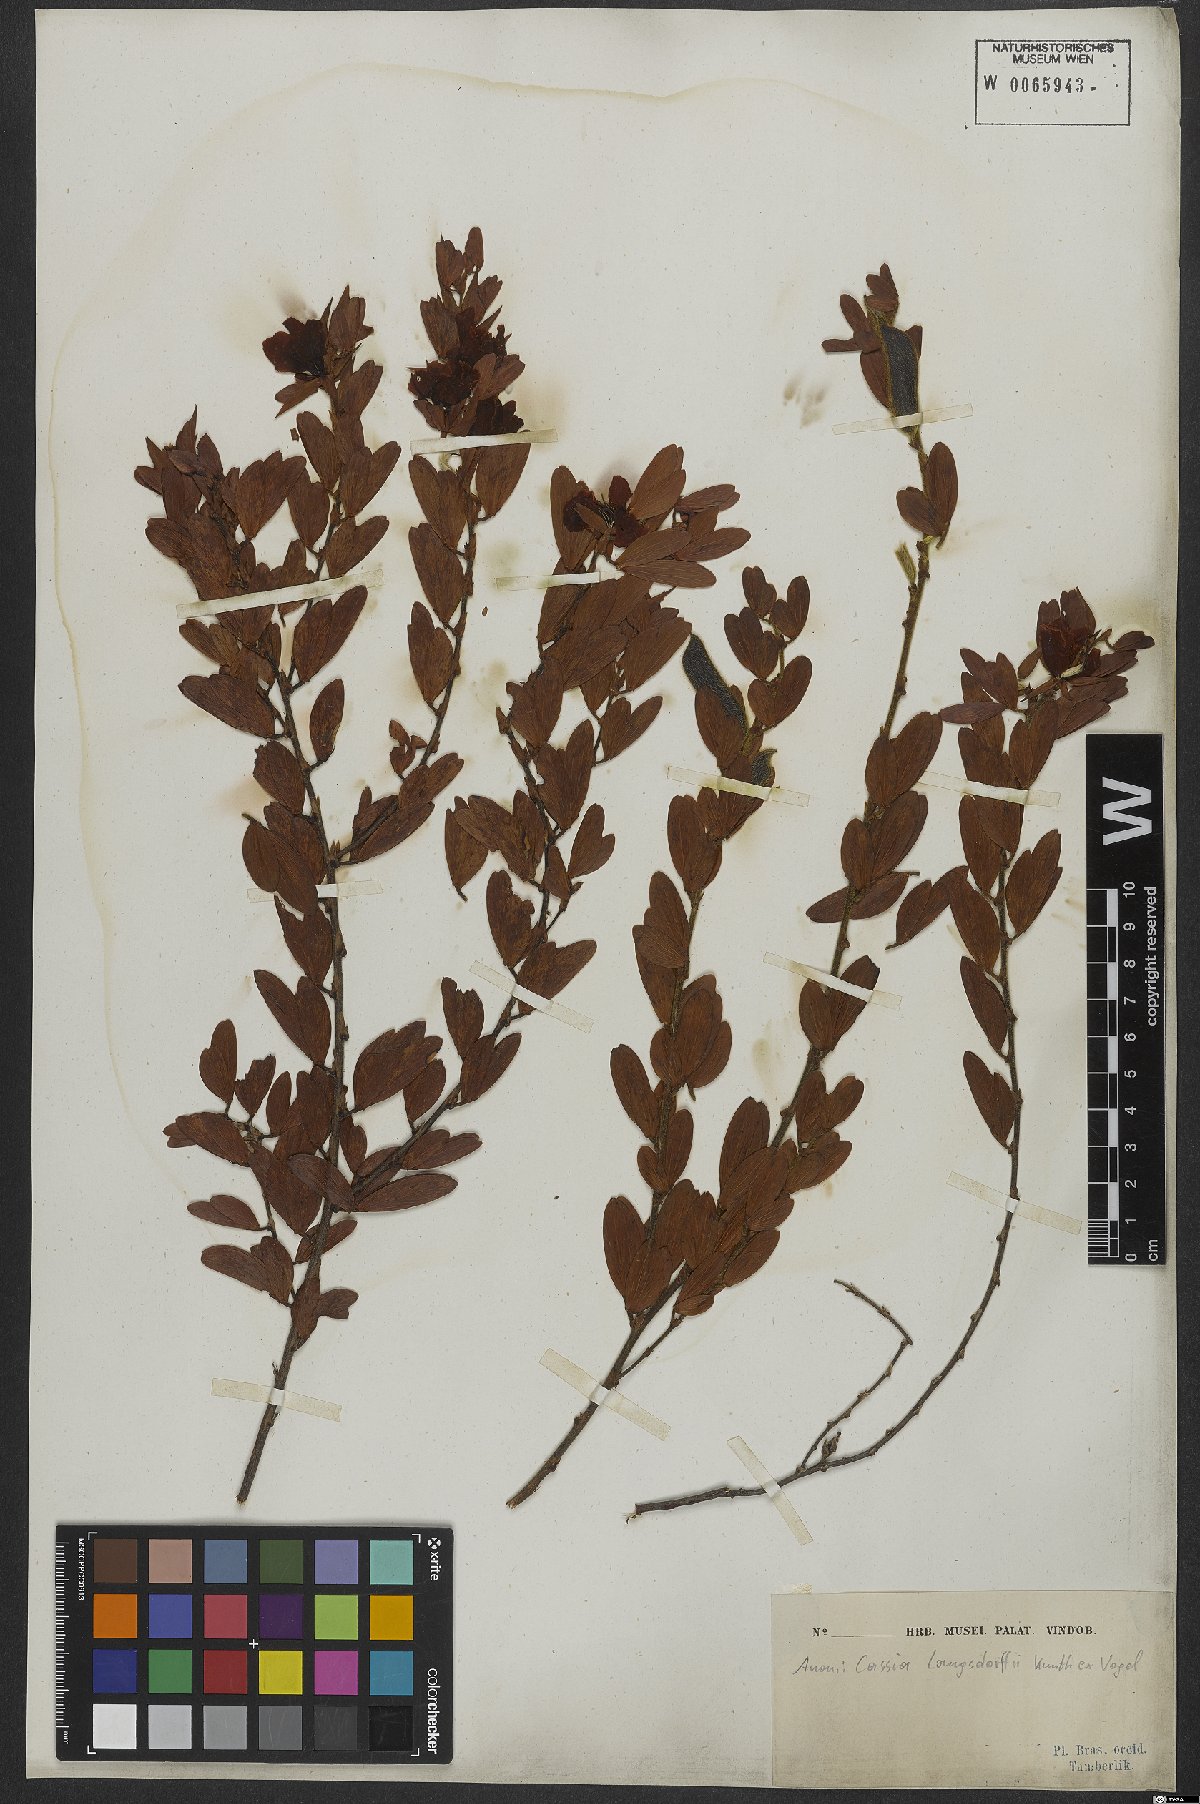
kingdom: Plantae
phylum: Tracheophyta
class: Magnoliopsida
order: Fabales
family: Fabaceae
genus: Chamaecrista
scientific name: Chamaecrista langsdorffii
